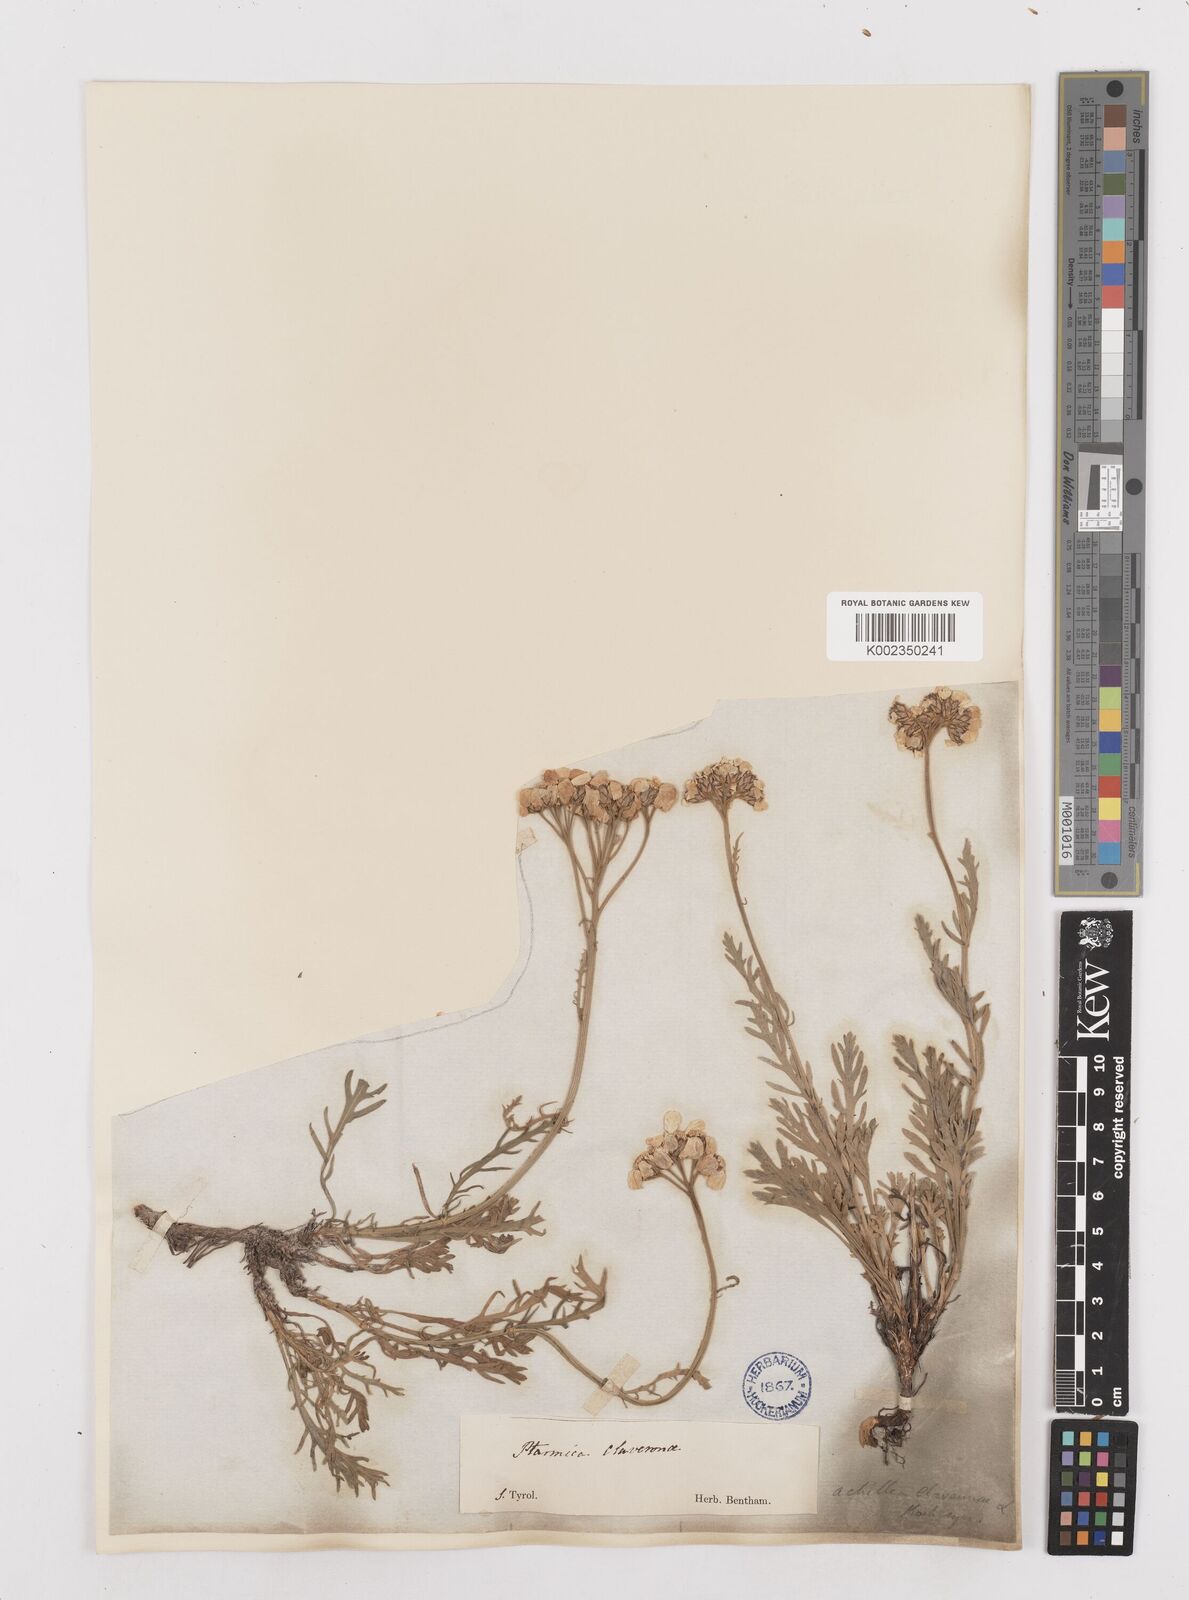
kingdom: Plantae
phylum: Tracheophyta
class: Magnoliopsida
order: Asterales
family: Asteraceae
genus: Achillea
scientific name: Achillea clavennae
